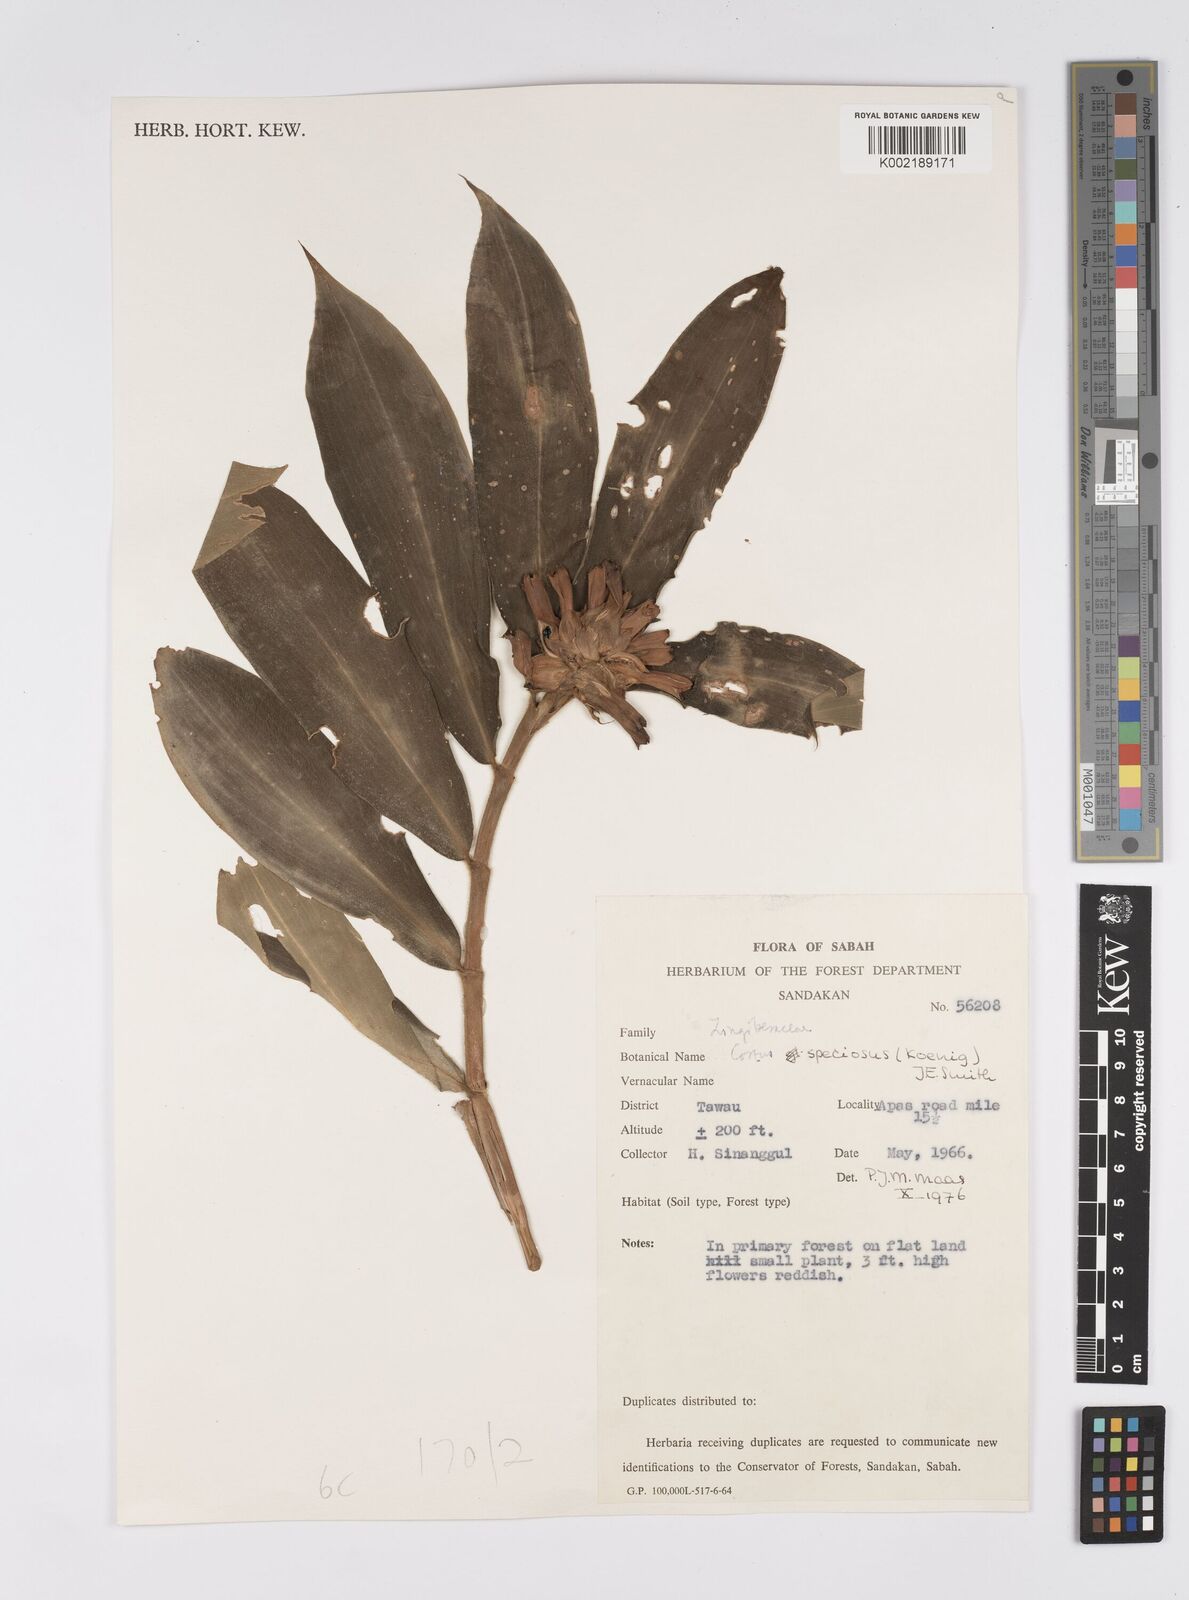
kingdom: Plantae
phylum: Tracheophyta
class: Liliopsida
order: Zingiberales
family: Costaceae
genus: Hellenia
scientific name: Hellenia speciosa
